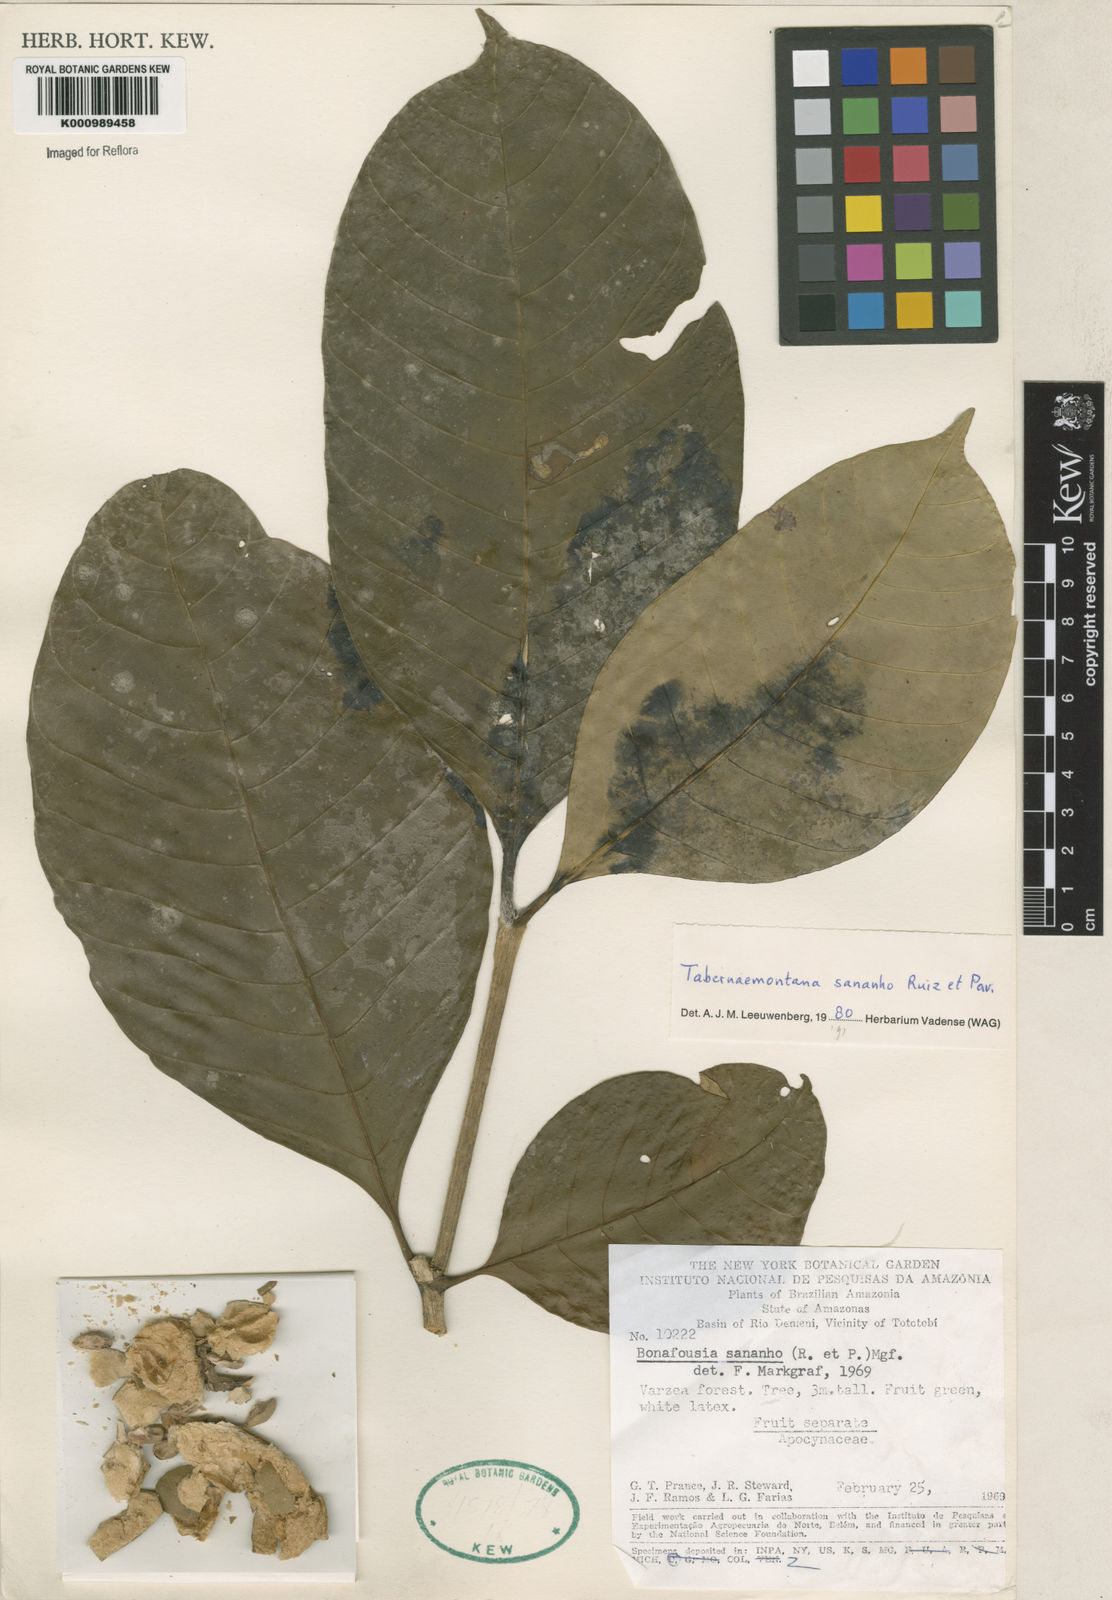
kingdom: Plantae
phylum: Tracheophyta
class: Magnoliopsida
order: Gentianales
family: Apocynaceae
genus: Tabernaemontana
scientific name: Tabernaemontana sananho
